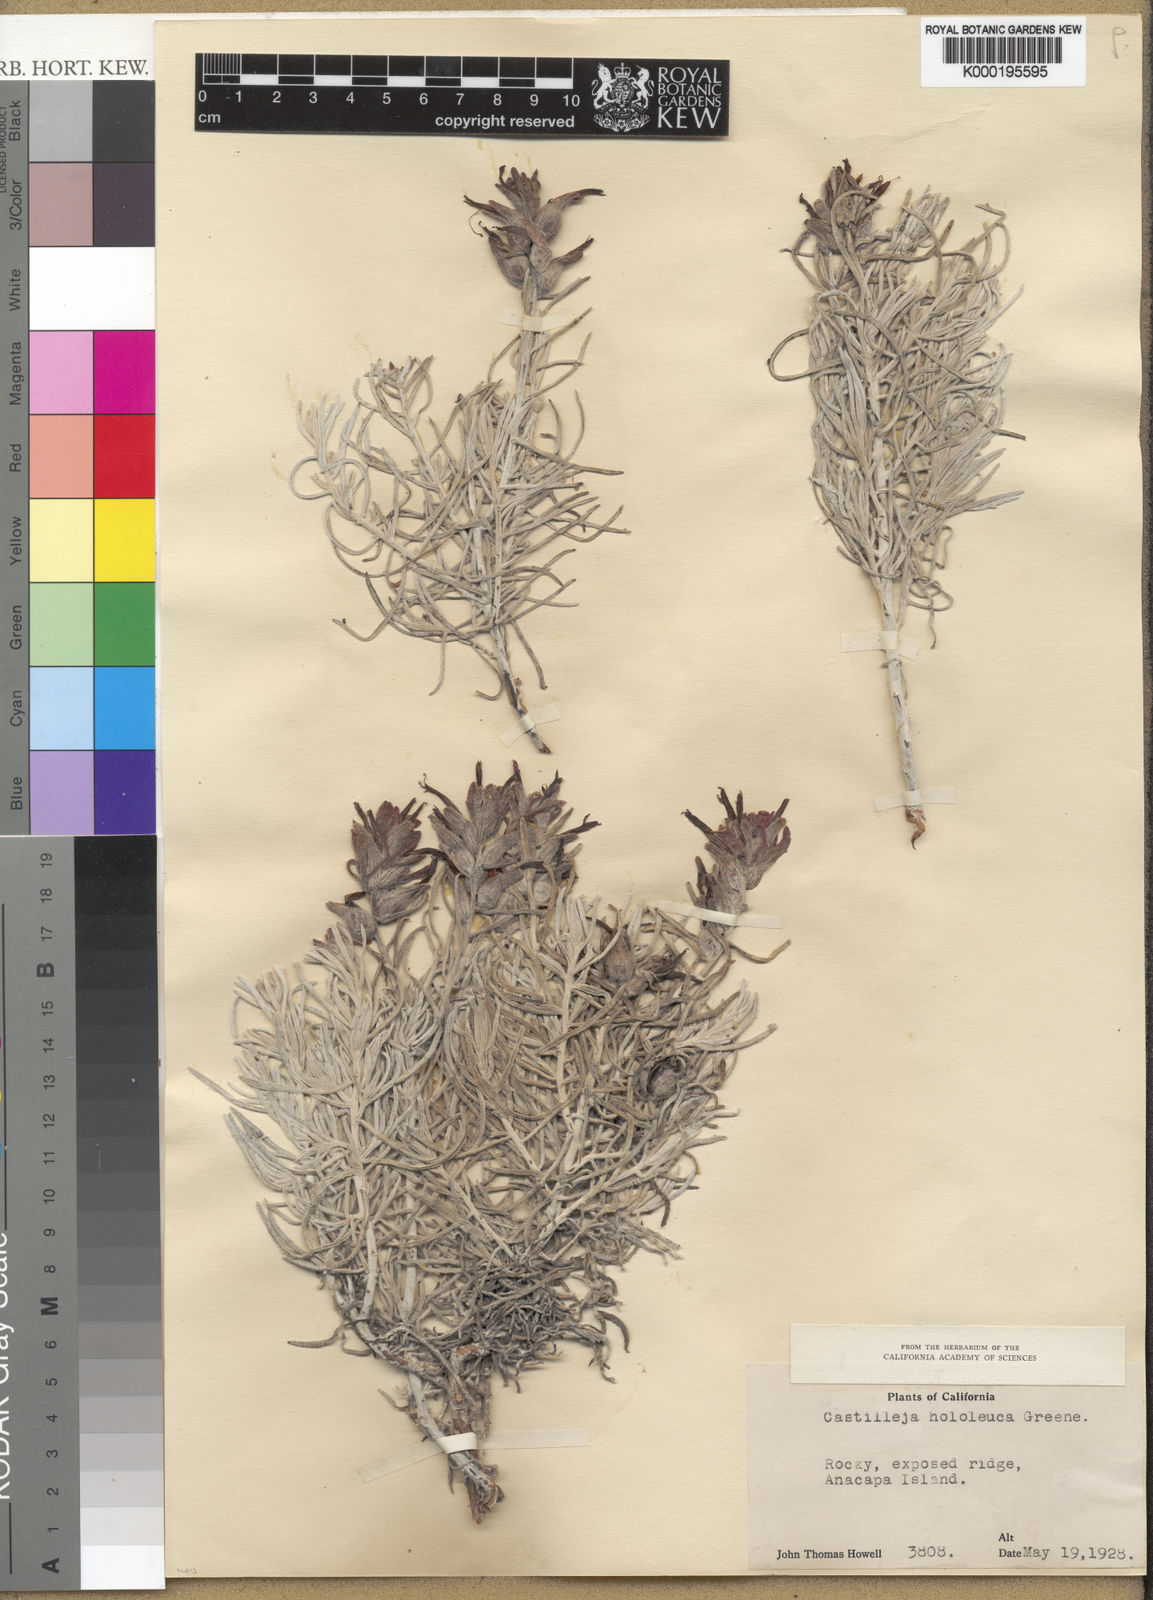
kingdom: Plantae
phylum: Tracheophyta
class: Magnoliopsida
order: Lamiales
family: Orobanchaceae
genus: Castilleja
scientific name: Castilleja hololeuca
